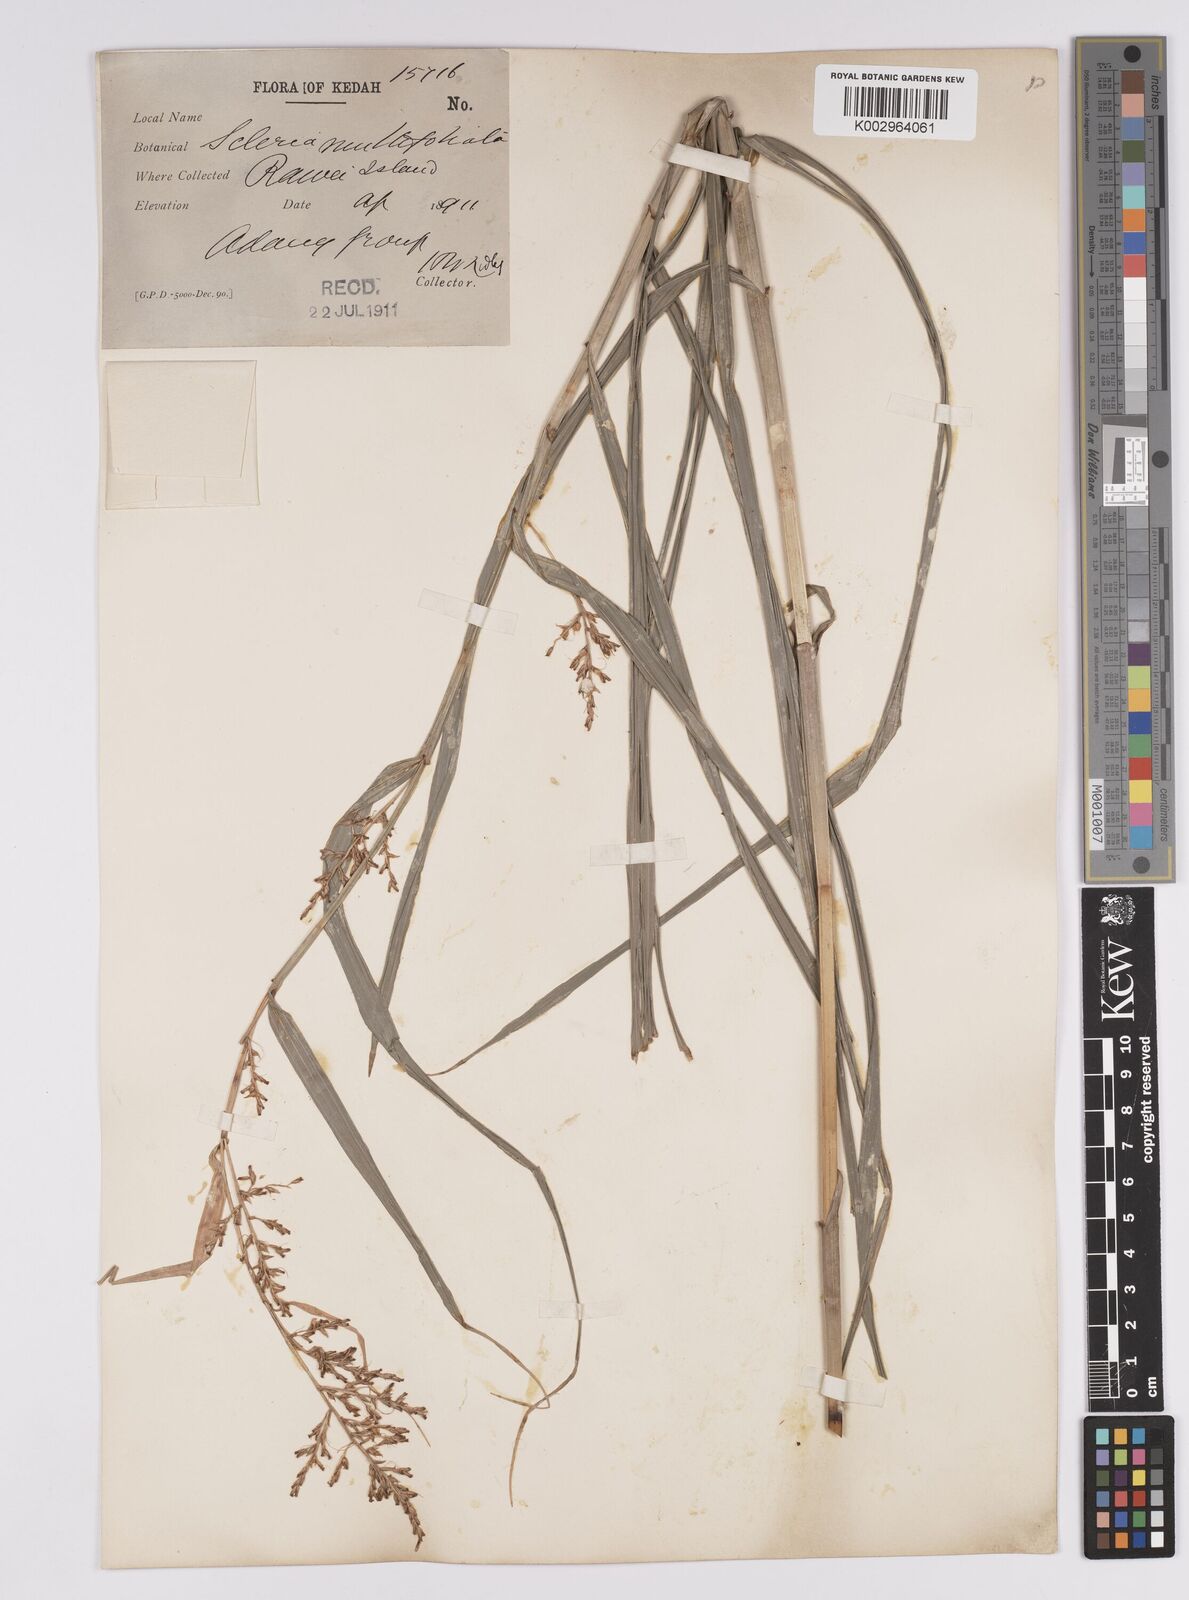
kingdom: Plantae
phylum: Tracheophyta
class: Liliopsida
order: Poales
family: Cyperaceae
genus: Scleria
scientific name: Scleria purpurascens
